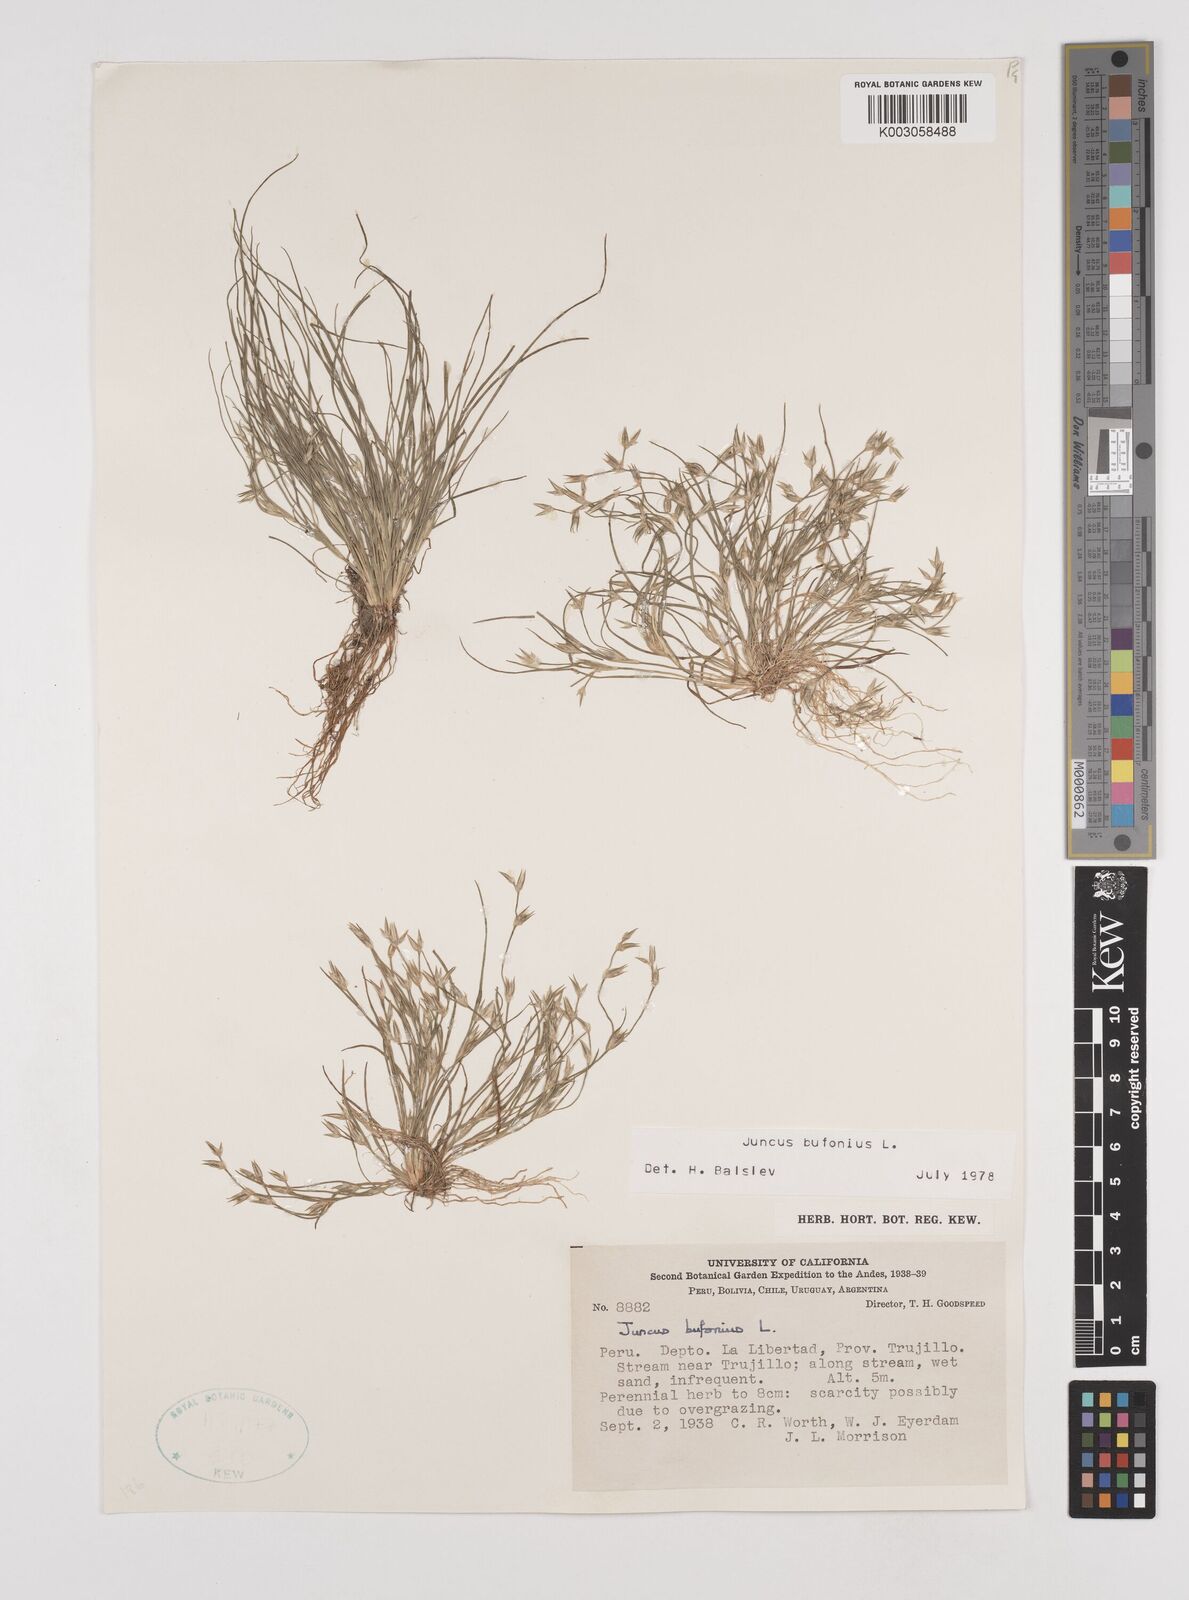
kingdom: Plantae
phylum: Tracheophyta
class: Liliopsida
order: Poales
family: Juncaceae
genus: Juncus
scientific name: Juncus bufonius
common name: Toad rush
